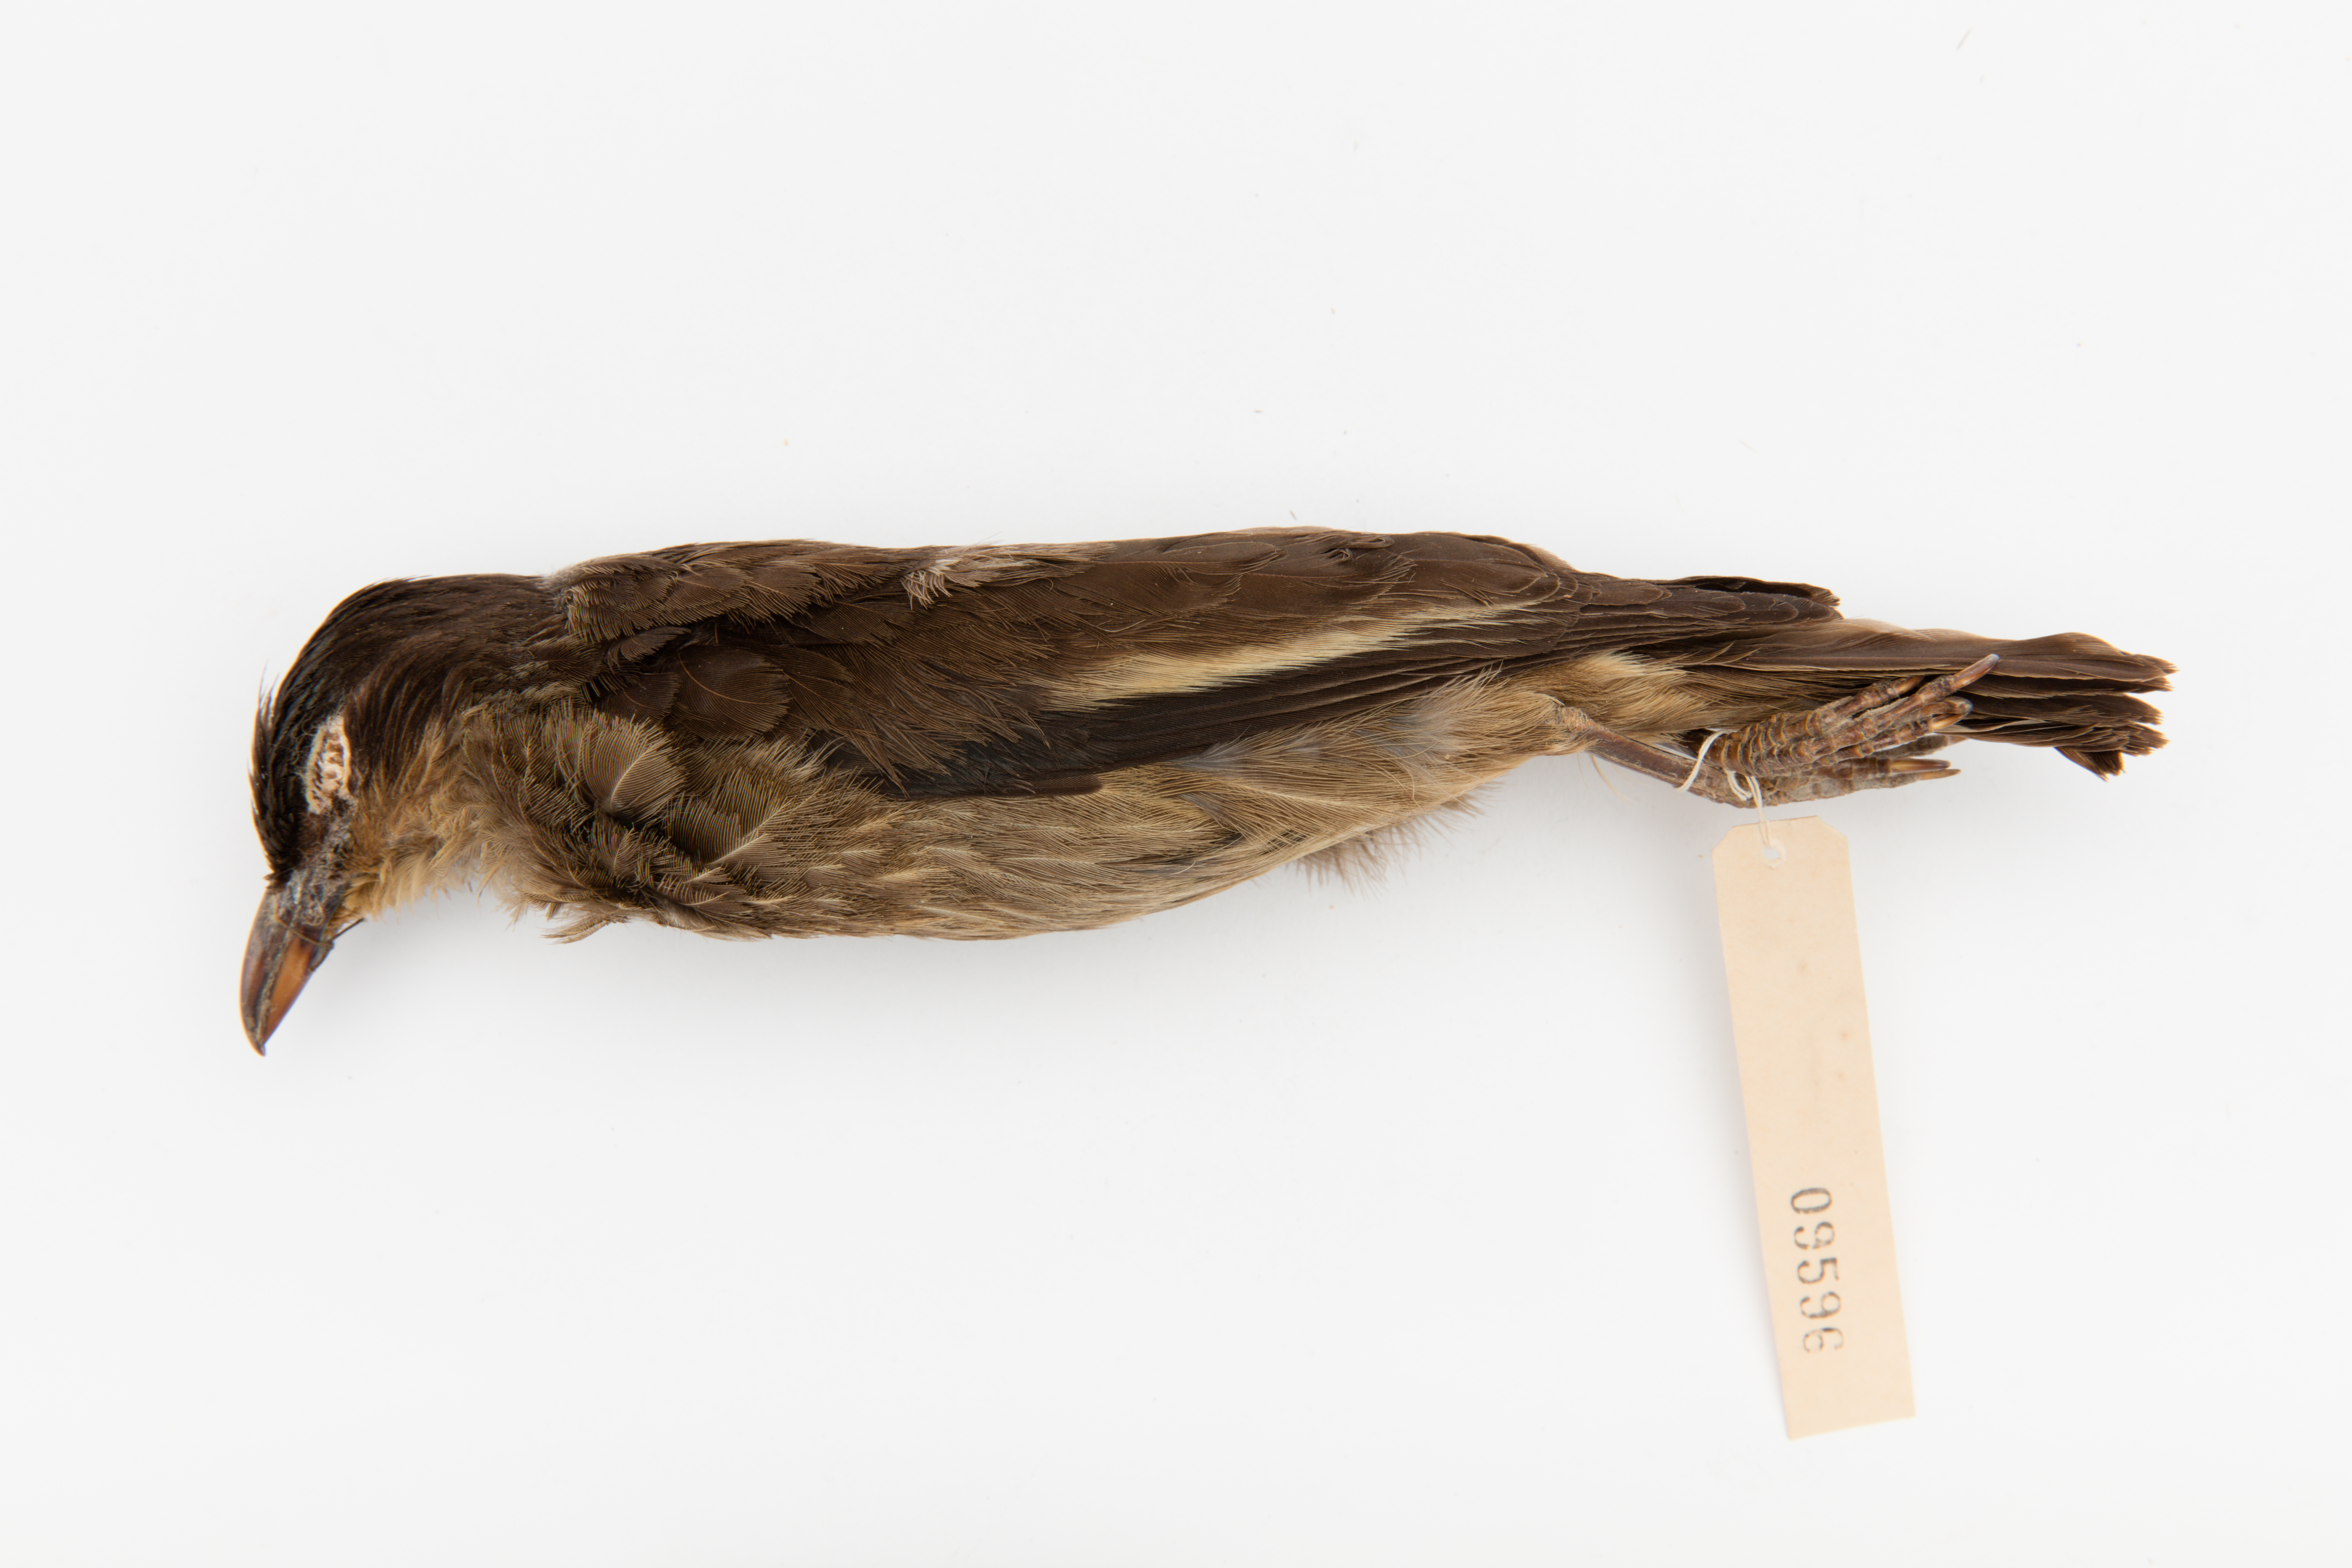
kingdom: Animalia
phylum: Chordata
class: Aves
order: Passeriformes
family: Sturnidae
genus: Aplonis
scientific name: Aplonis tabuensis
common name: Polynesian starling
